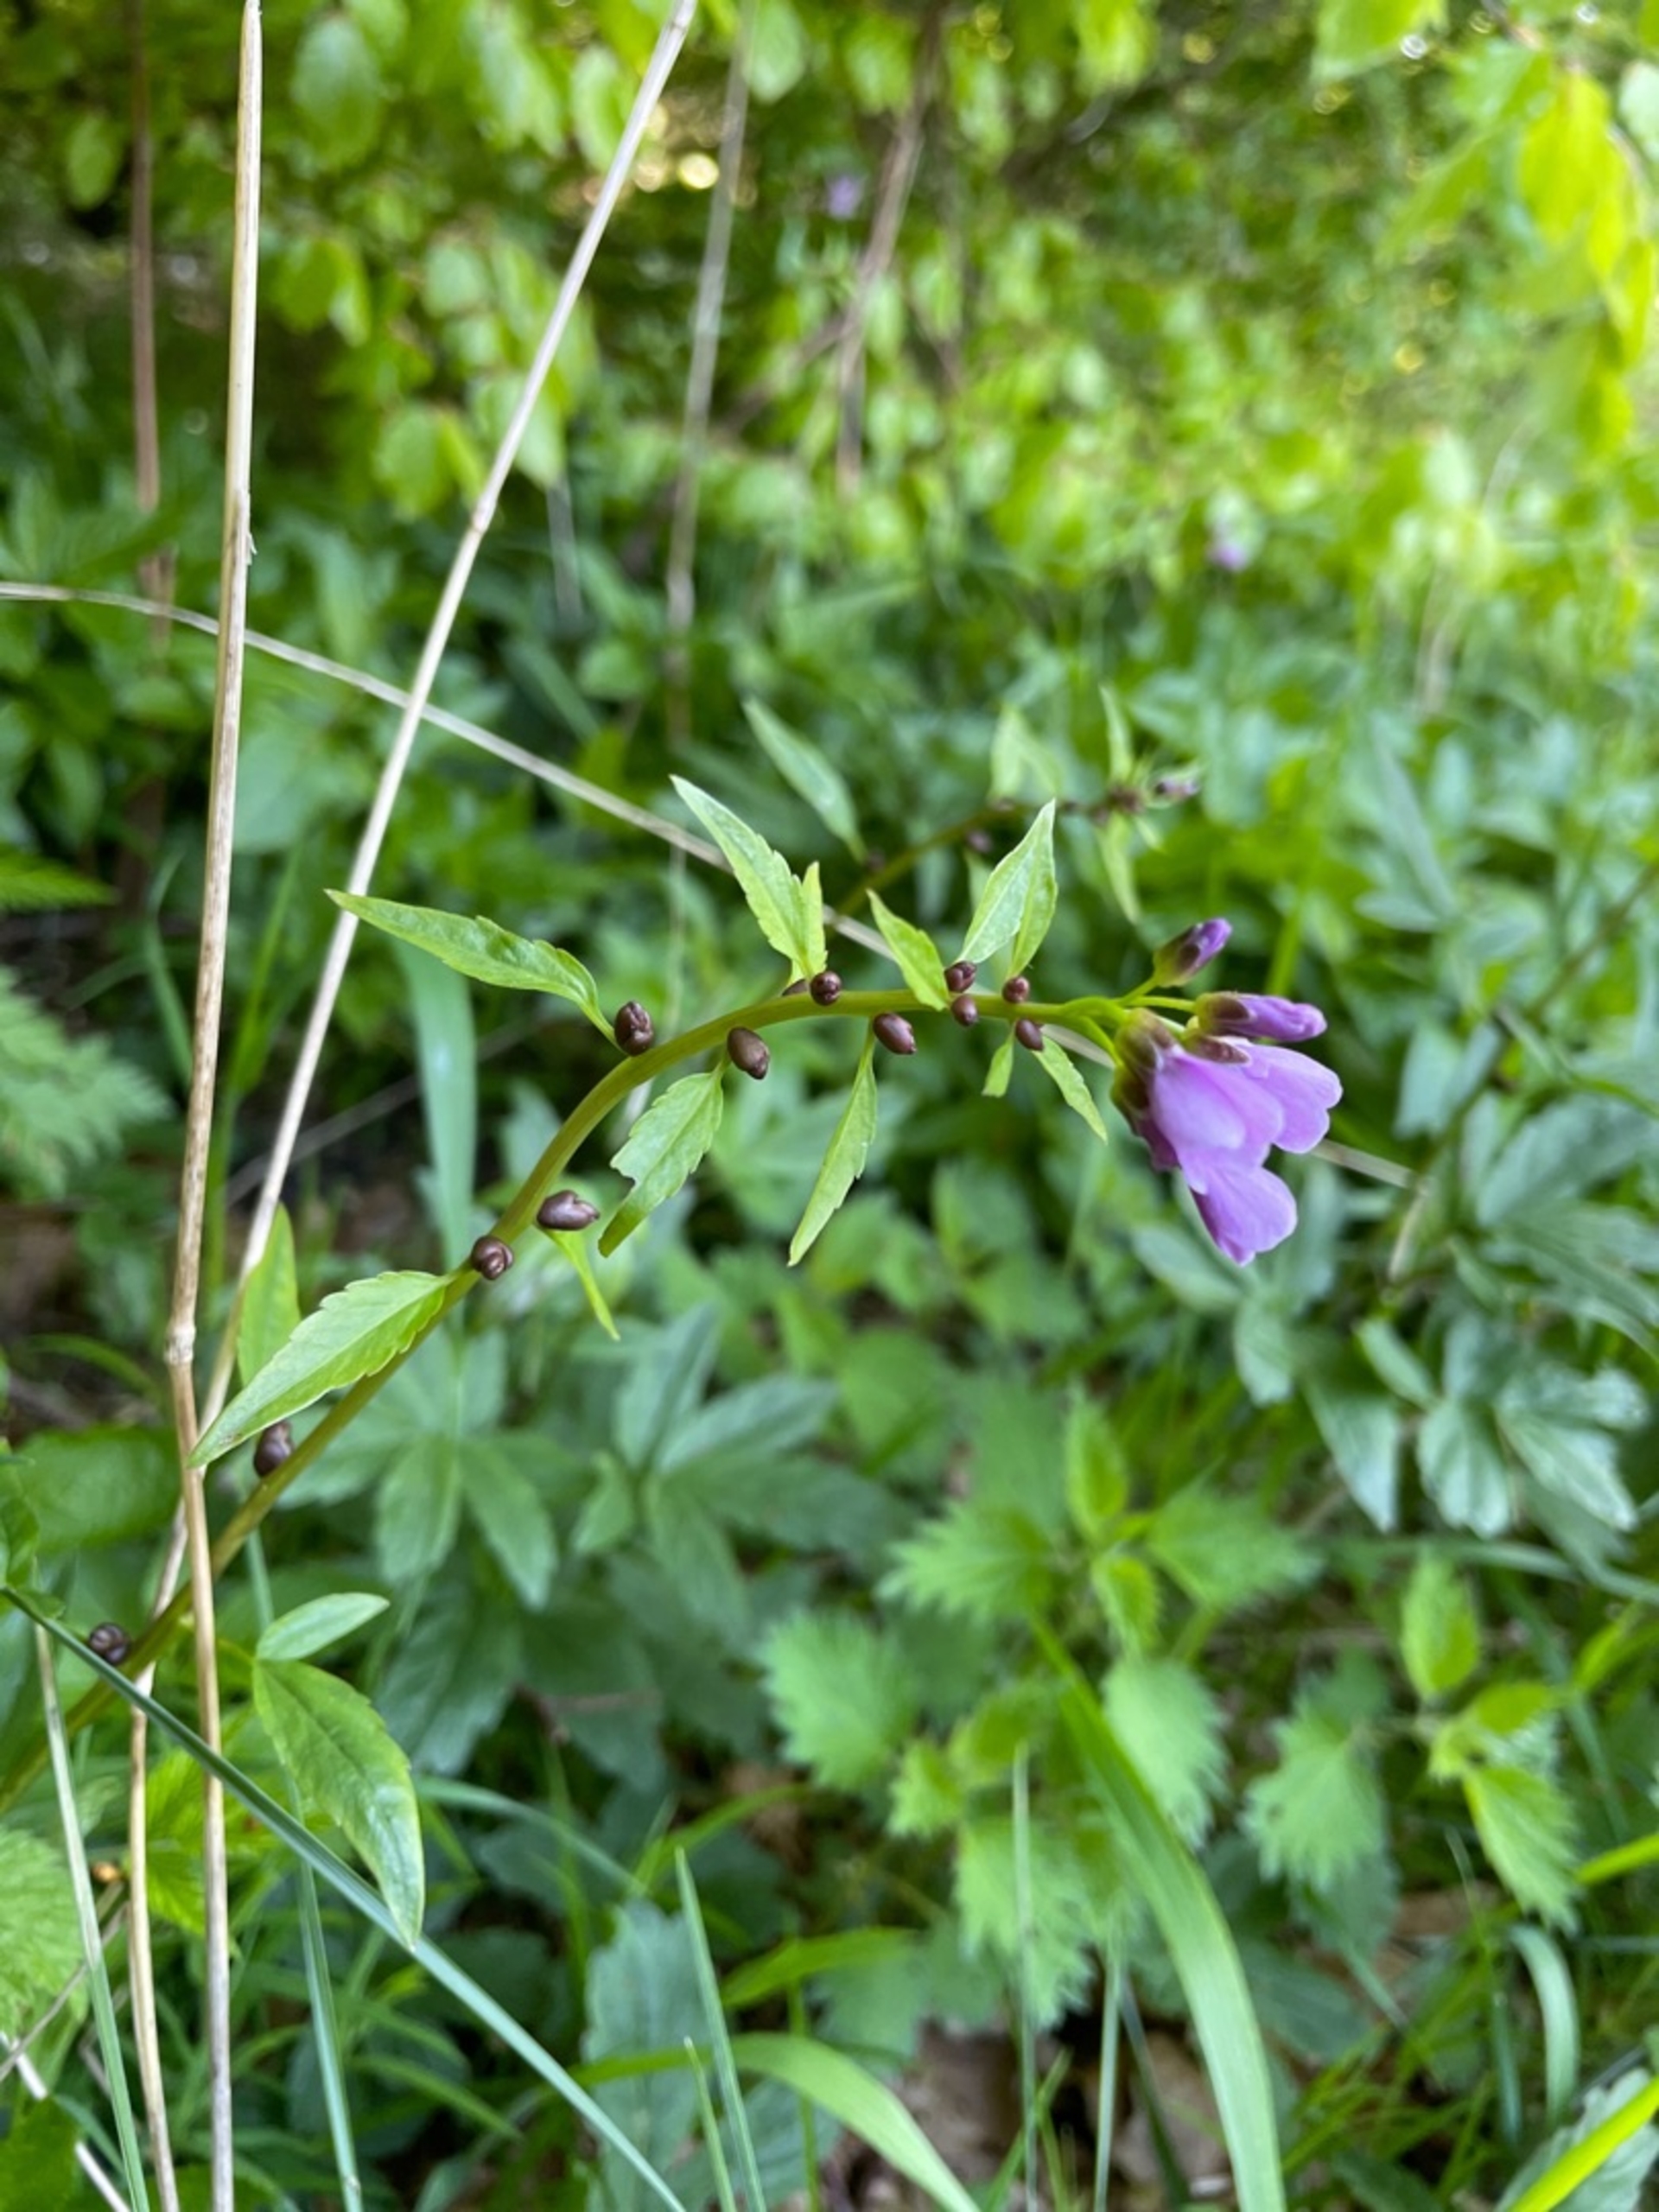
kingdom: Plantae
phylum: Tracheophyta
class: Magnoliopsida
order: Brassicales
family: Brassicaceae
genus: Cardamine
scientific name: Cardamine bulbifera
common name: Tandrod
